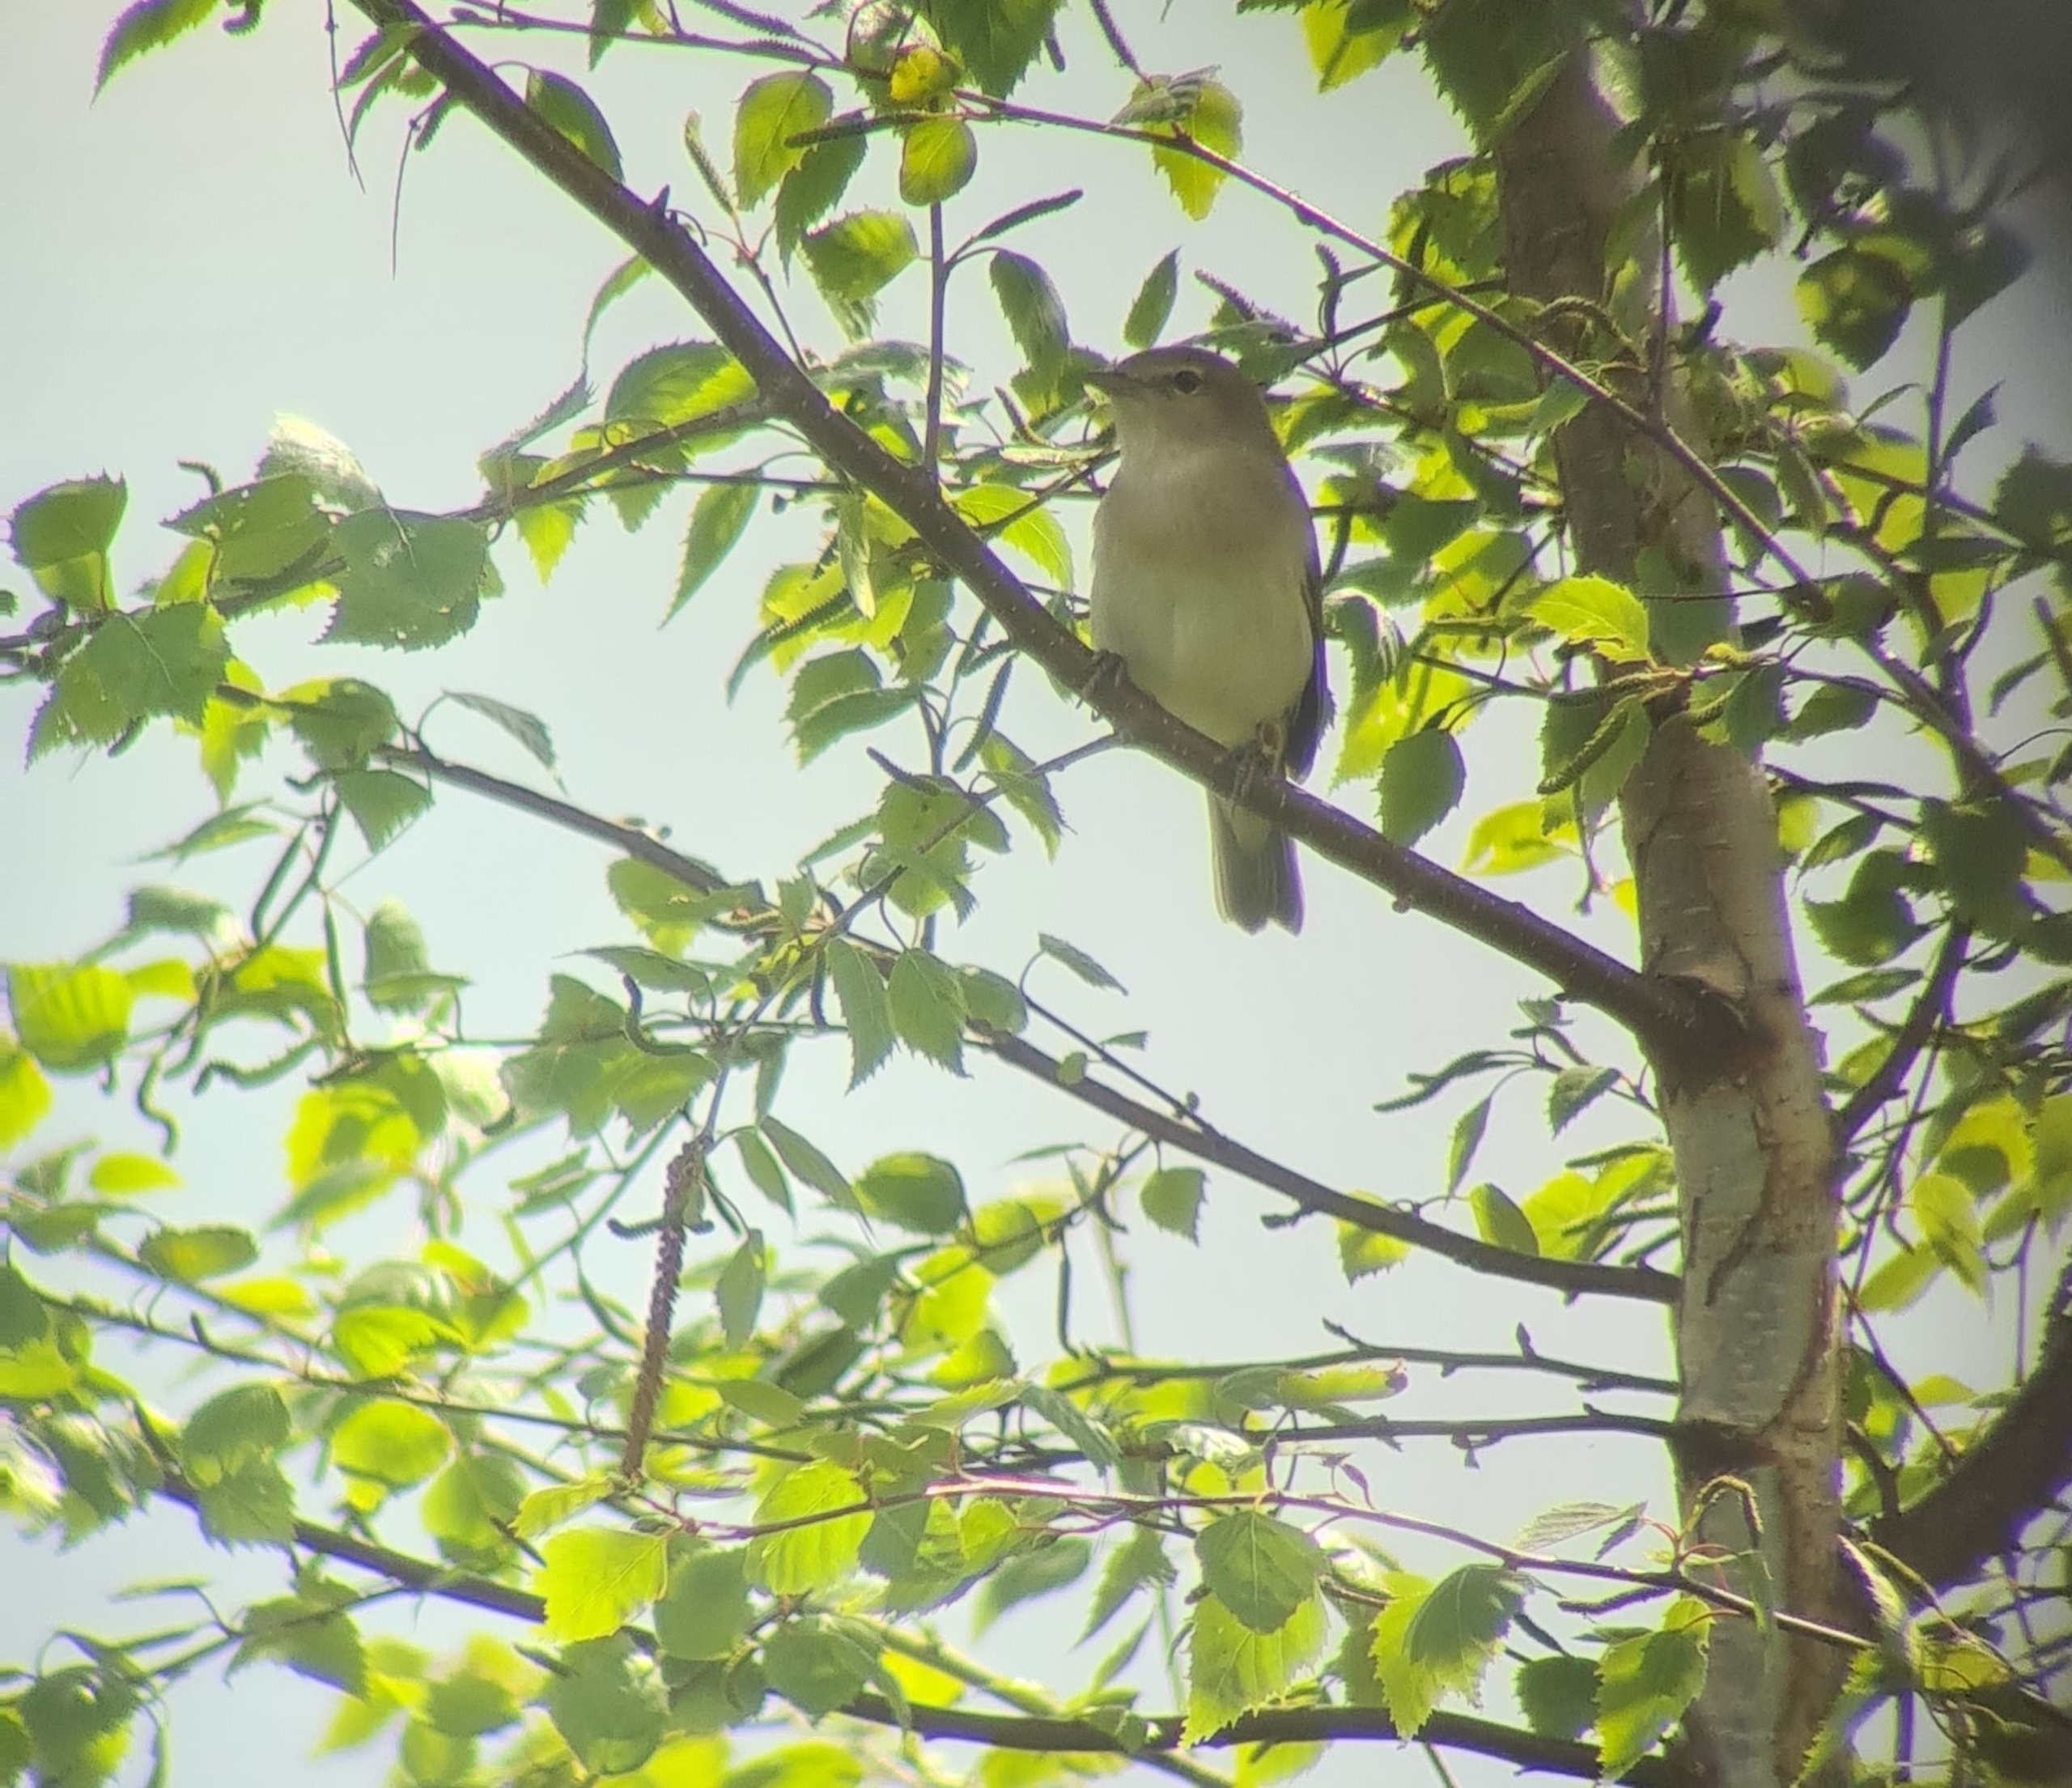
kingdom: Animalia
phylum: Chordata
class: Aves
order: Passeriformes
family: Sylviidae
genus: Sylvia
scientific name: Sylvia borin
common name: Havesanger
